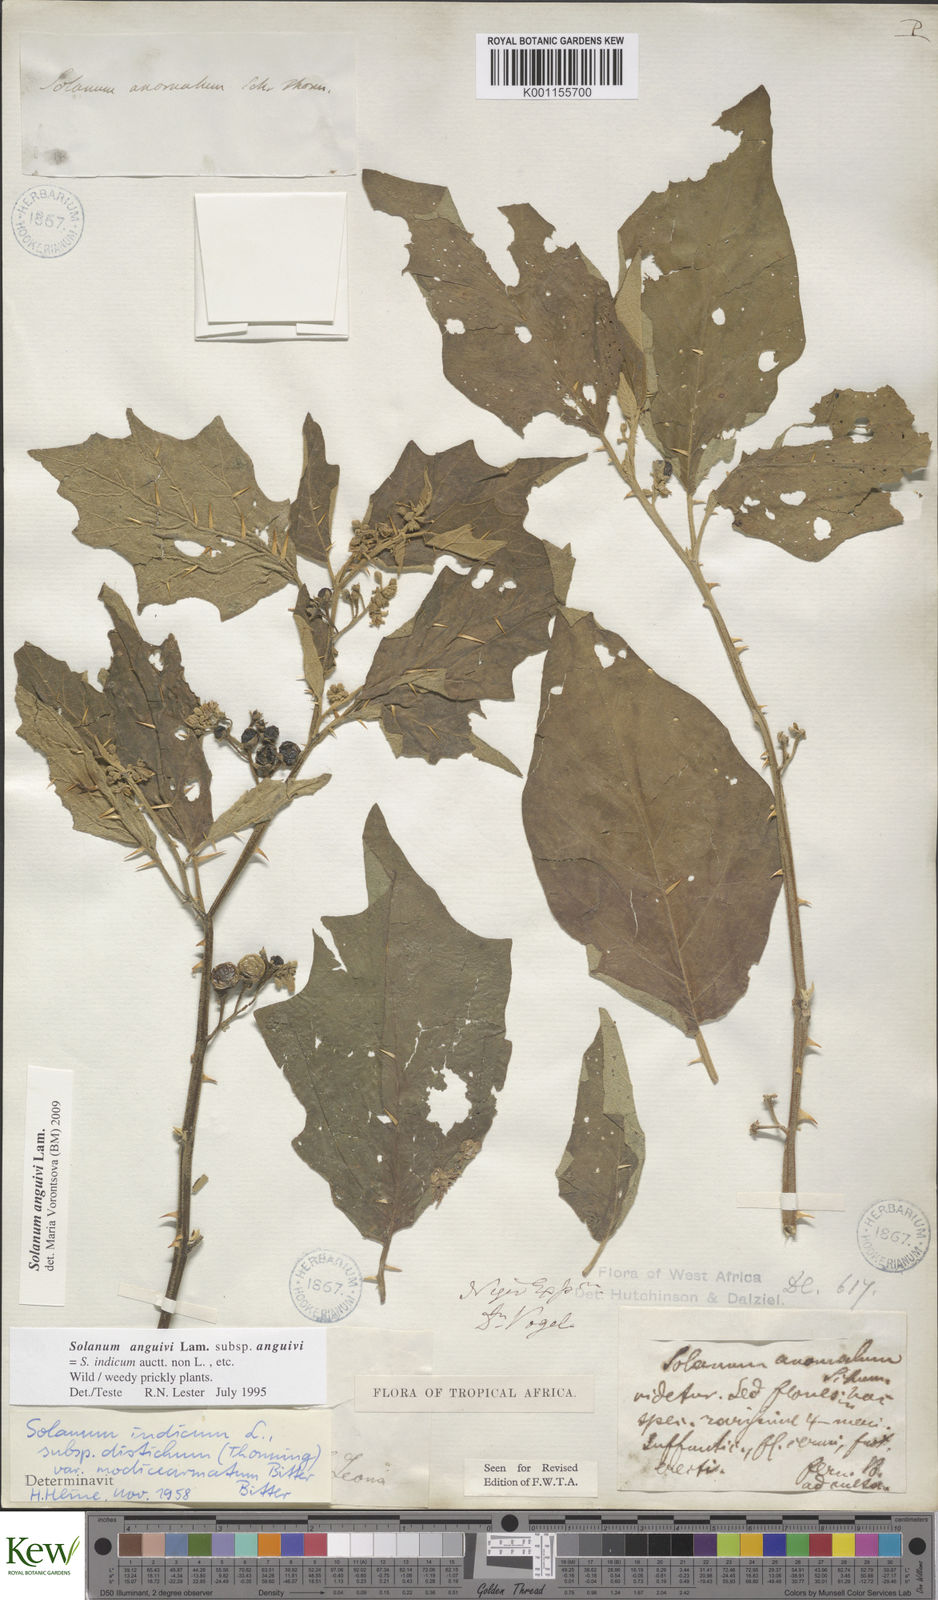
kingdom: Plantae
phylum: Tracheophyta
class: Magnoliopsida
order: Solanales
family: Solanaceae
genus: Solanum
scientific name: Solanum anguivi
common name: Forest bitterberry
